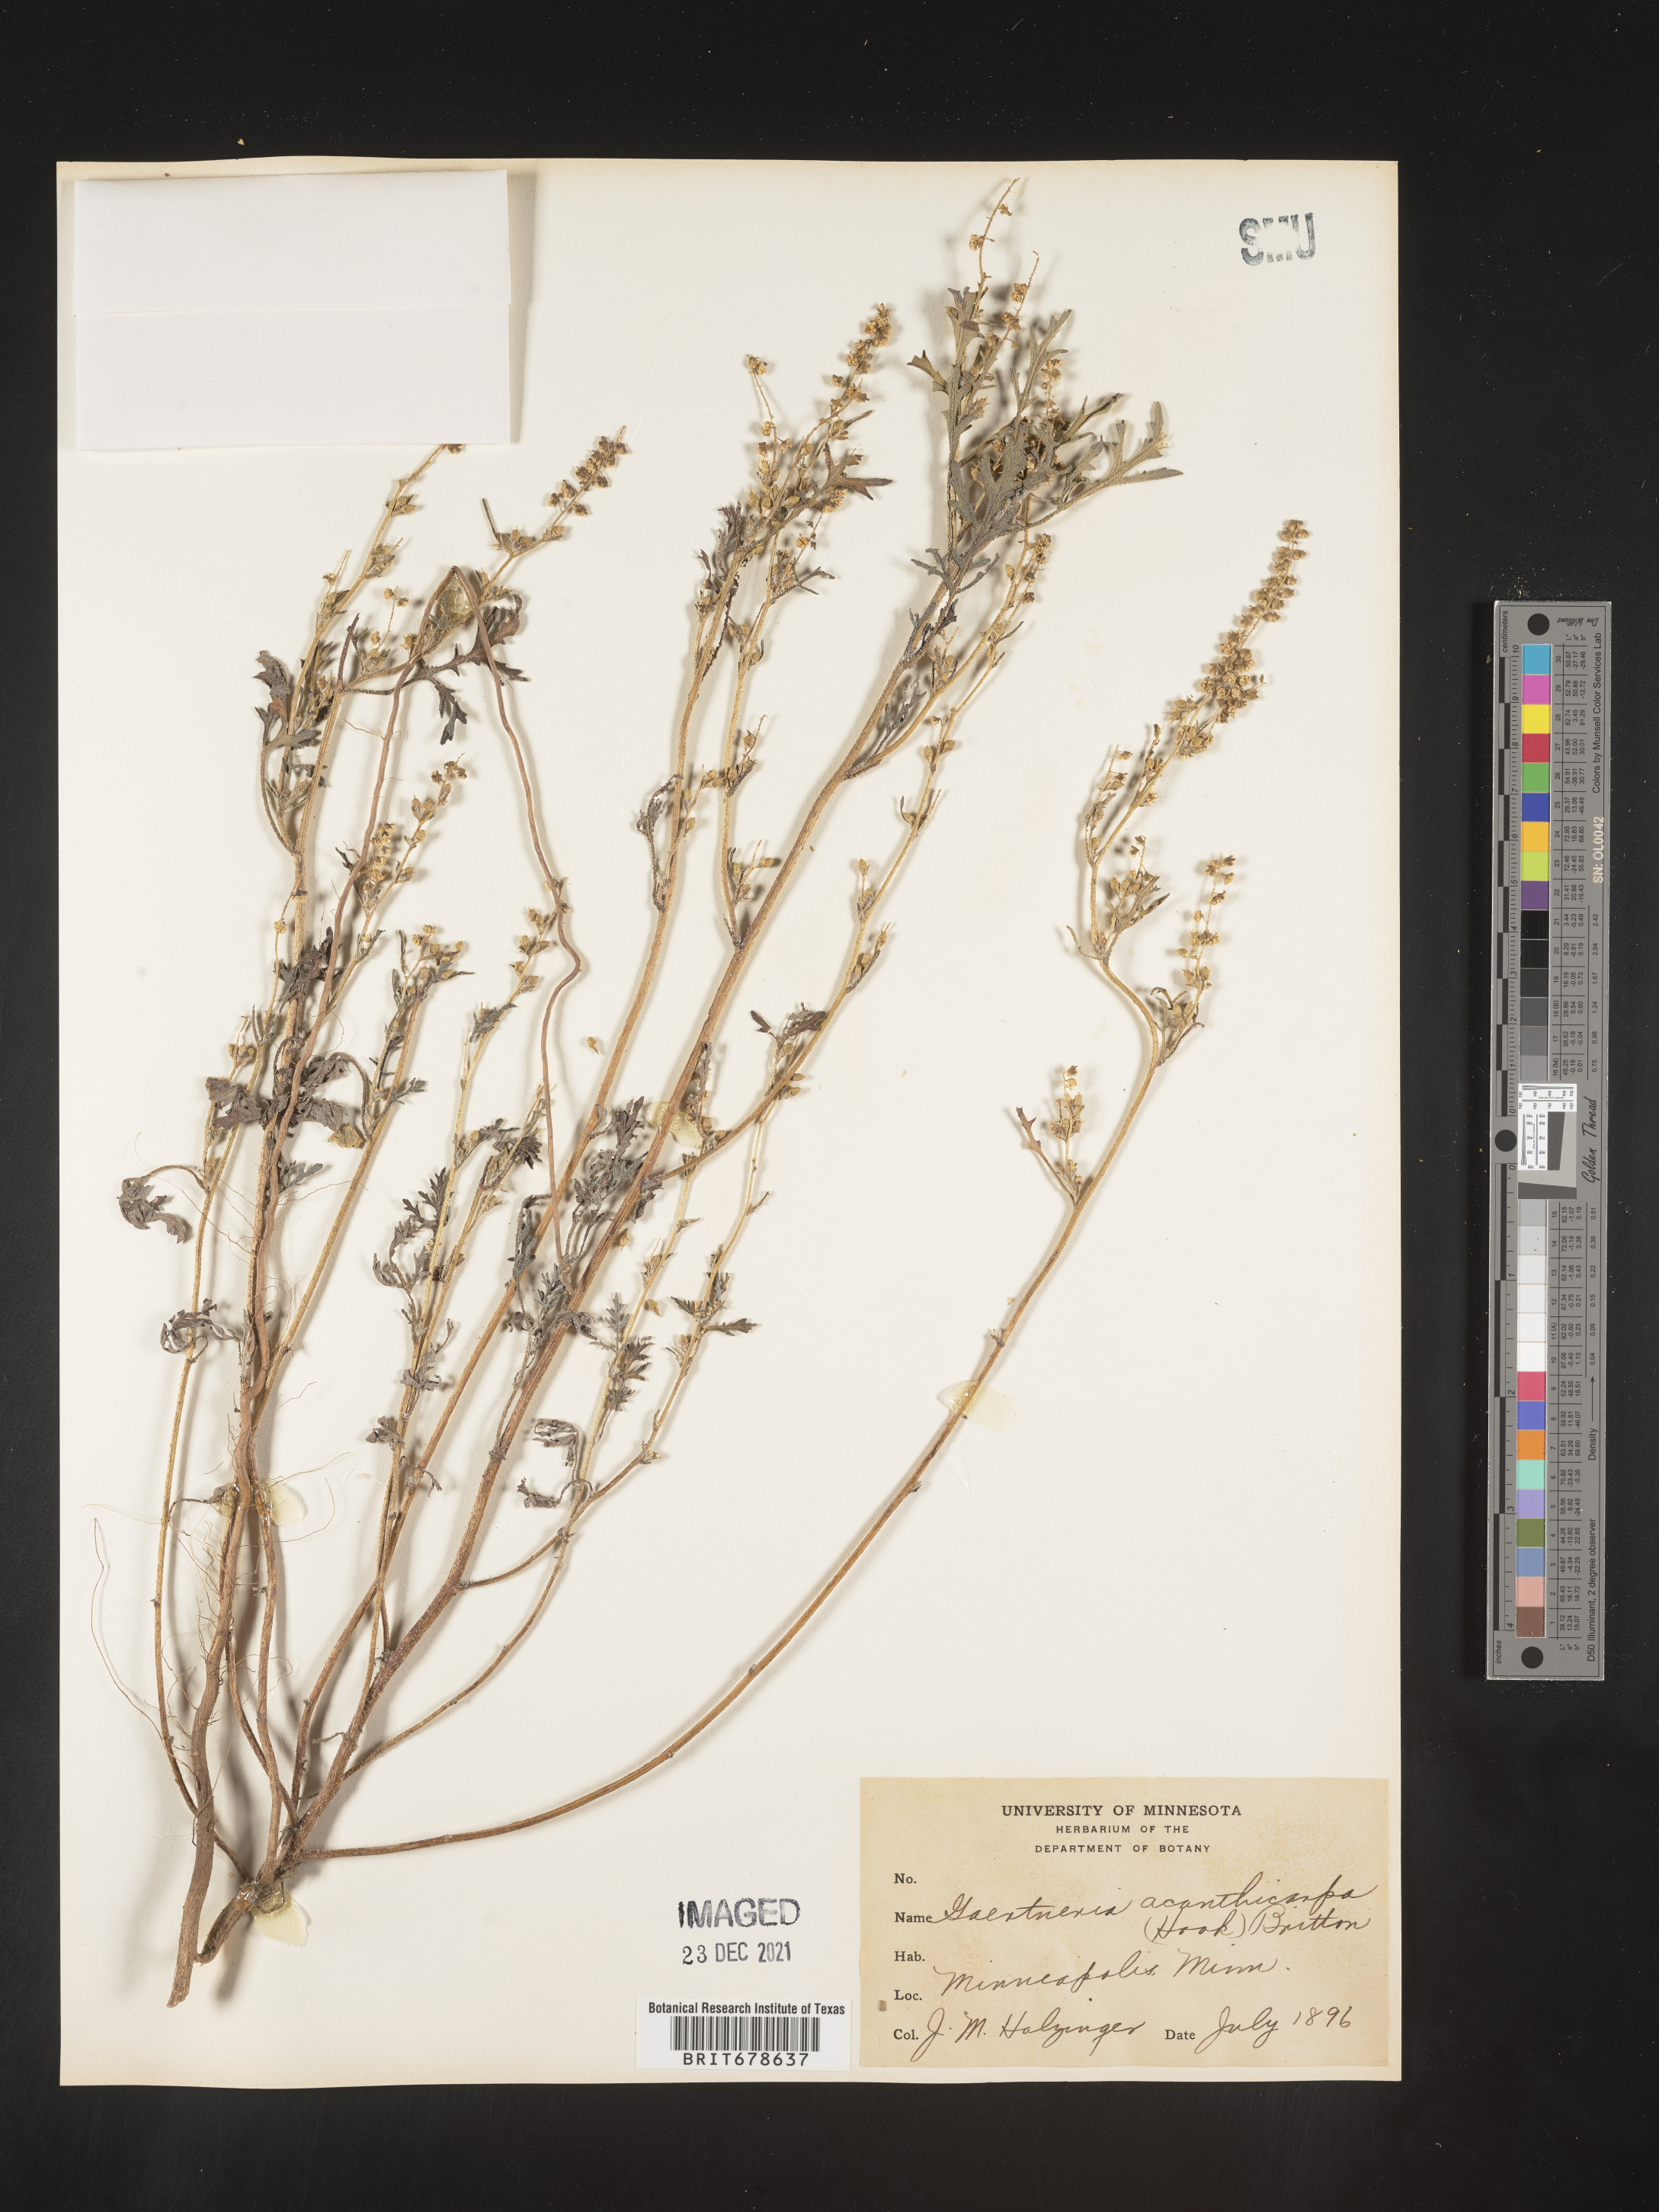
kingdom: Plantae
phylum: Tracheophyta
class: Magnoliopsida
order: Asterales
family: Asteraceae
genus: Ambrosia
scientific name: Ambrosia acanthicarpa
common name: Hooker's bur ragweed
